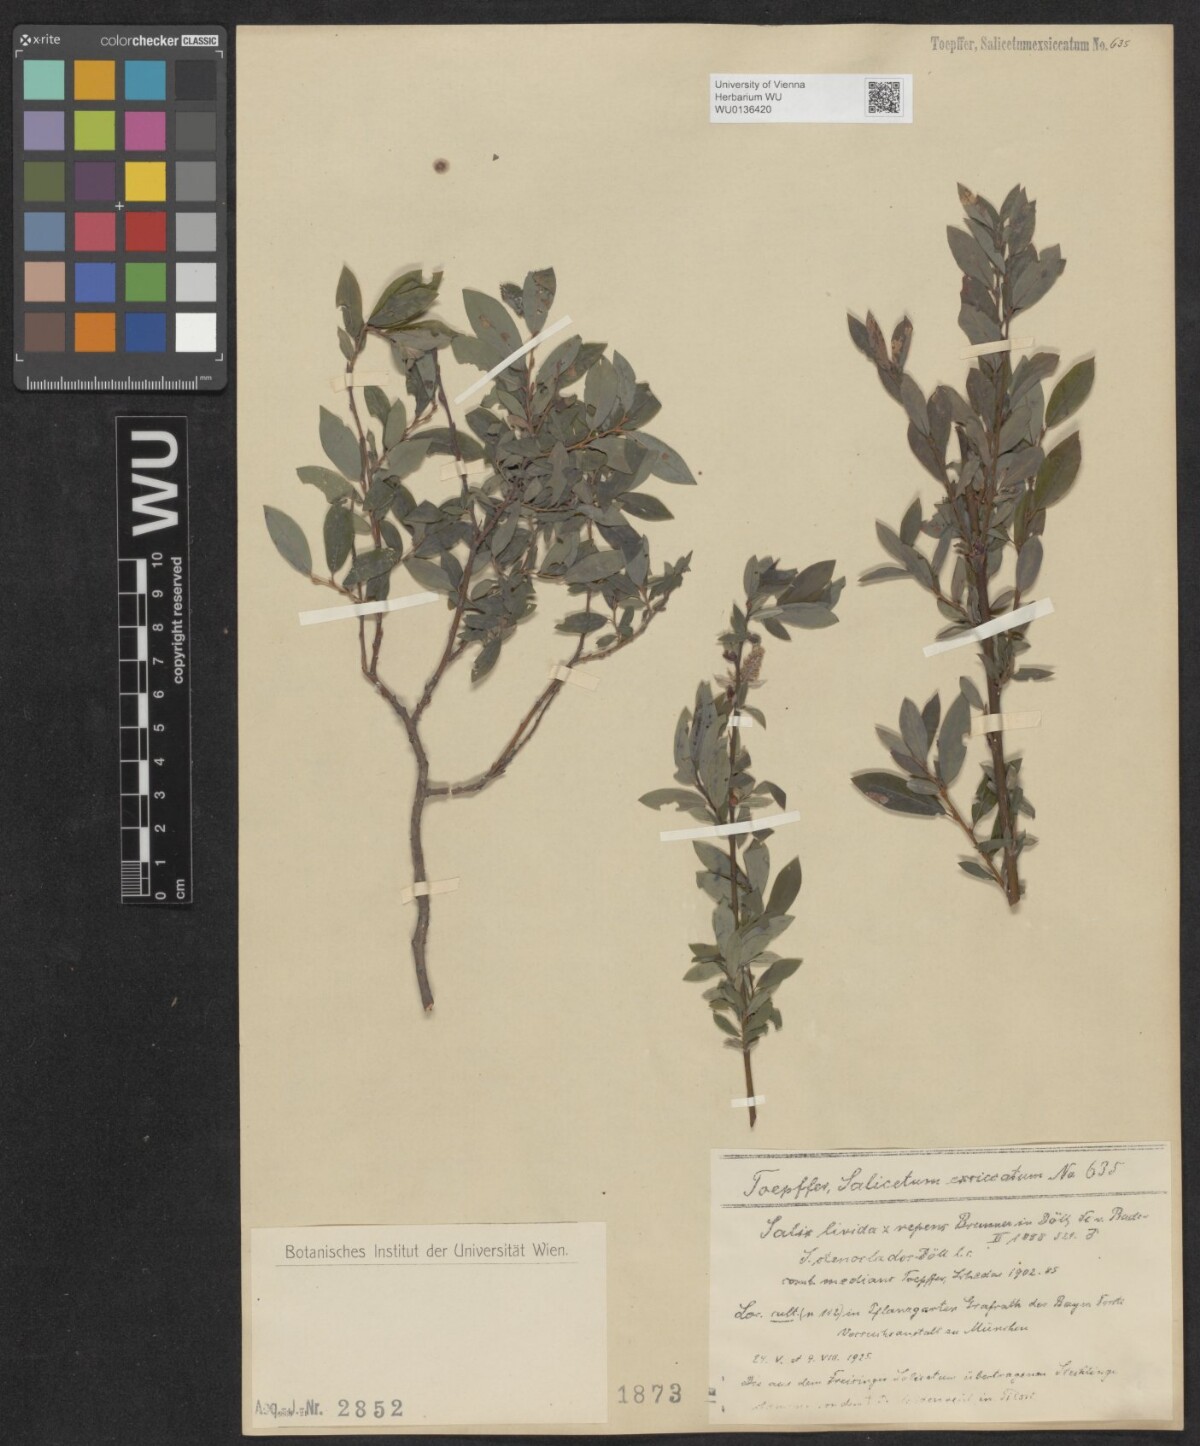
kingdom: Plantae
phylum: Tracheophyta
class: Magnoliopsida
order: Malpighiales
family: Salicaceae
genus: Salix
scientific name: Salix lanata
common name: Woolly willow
